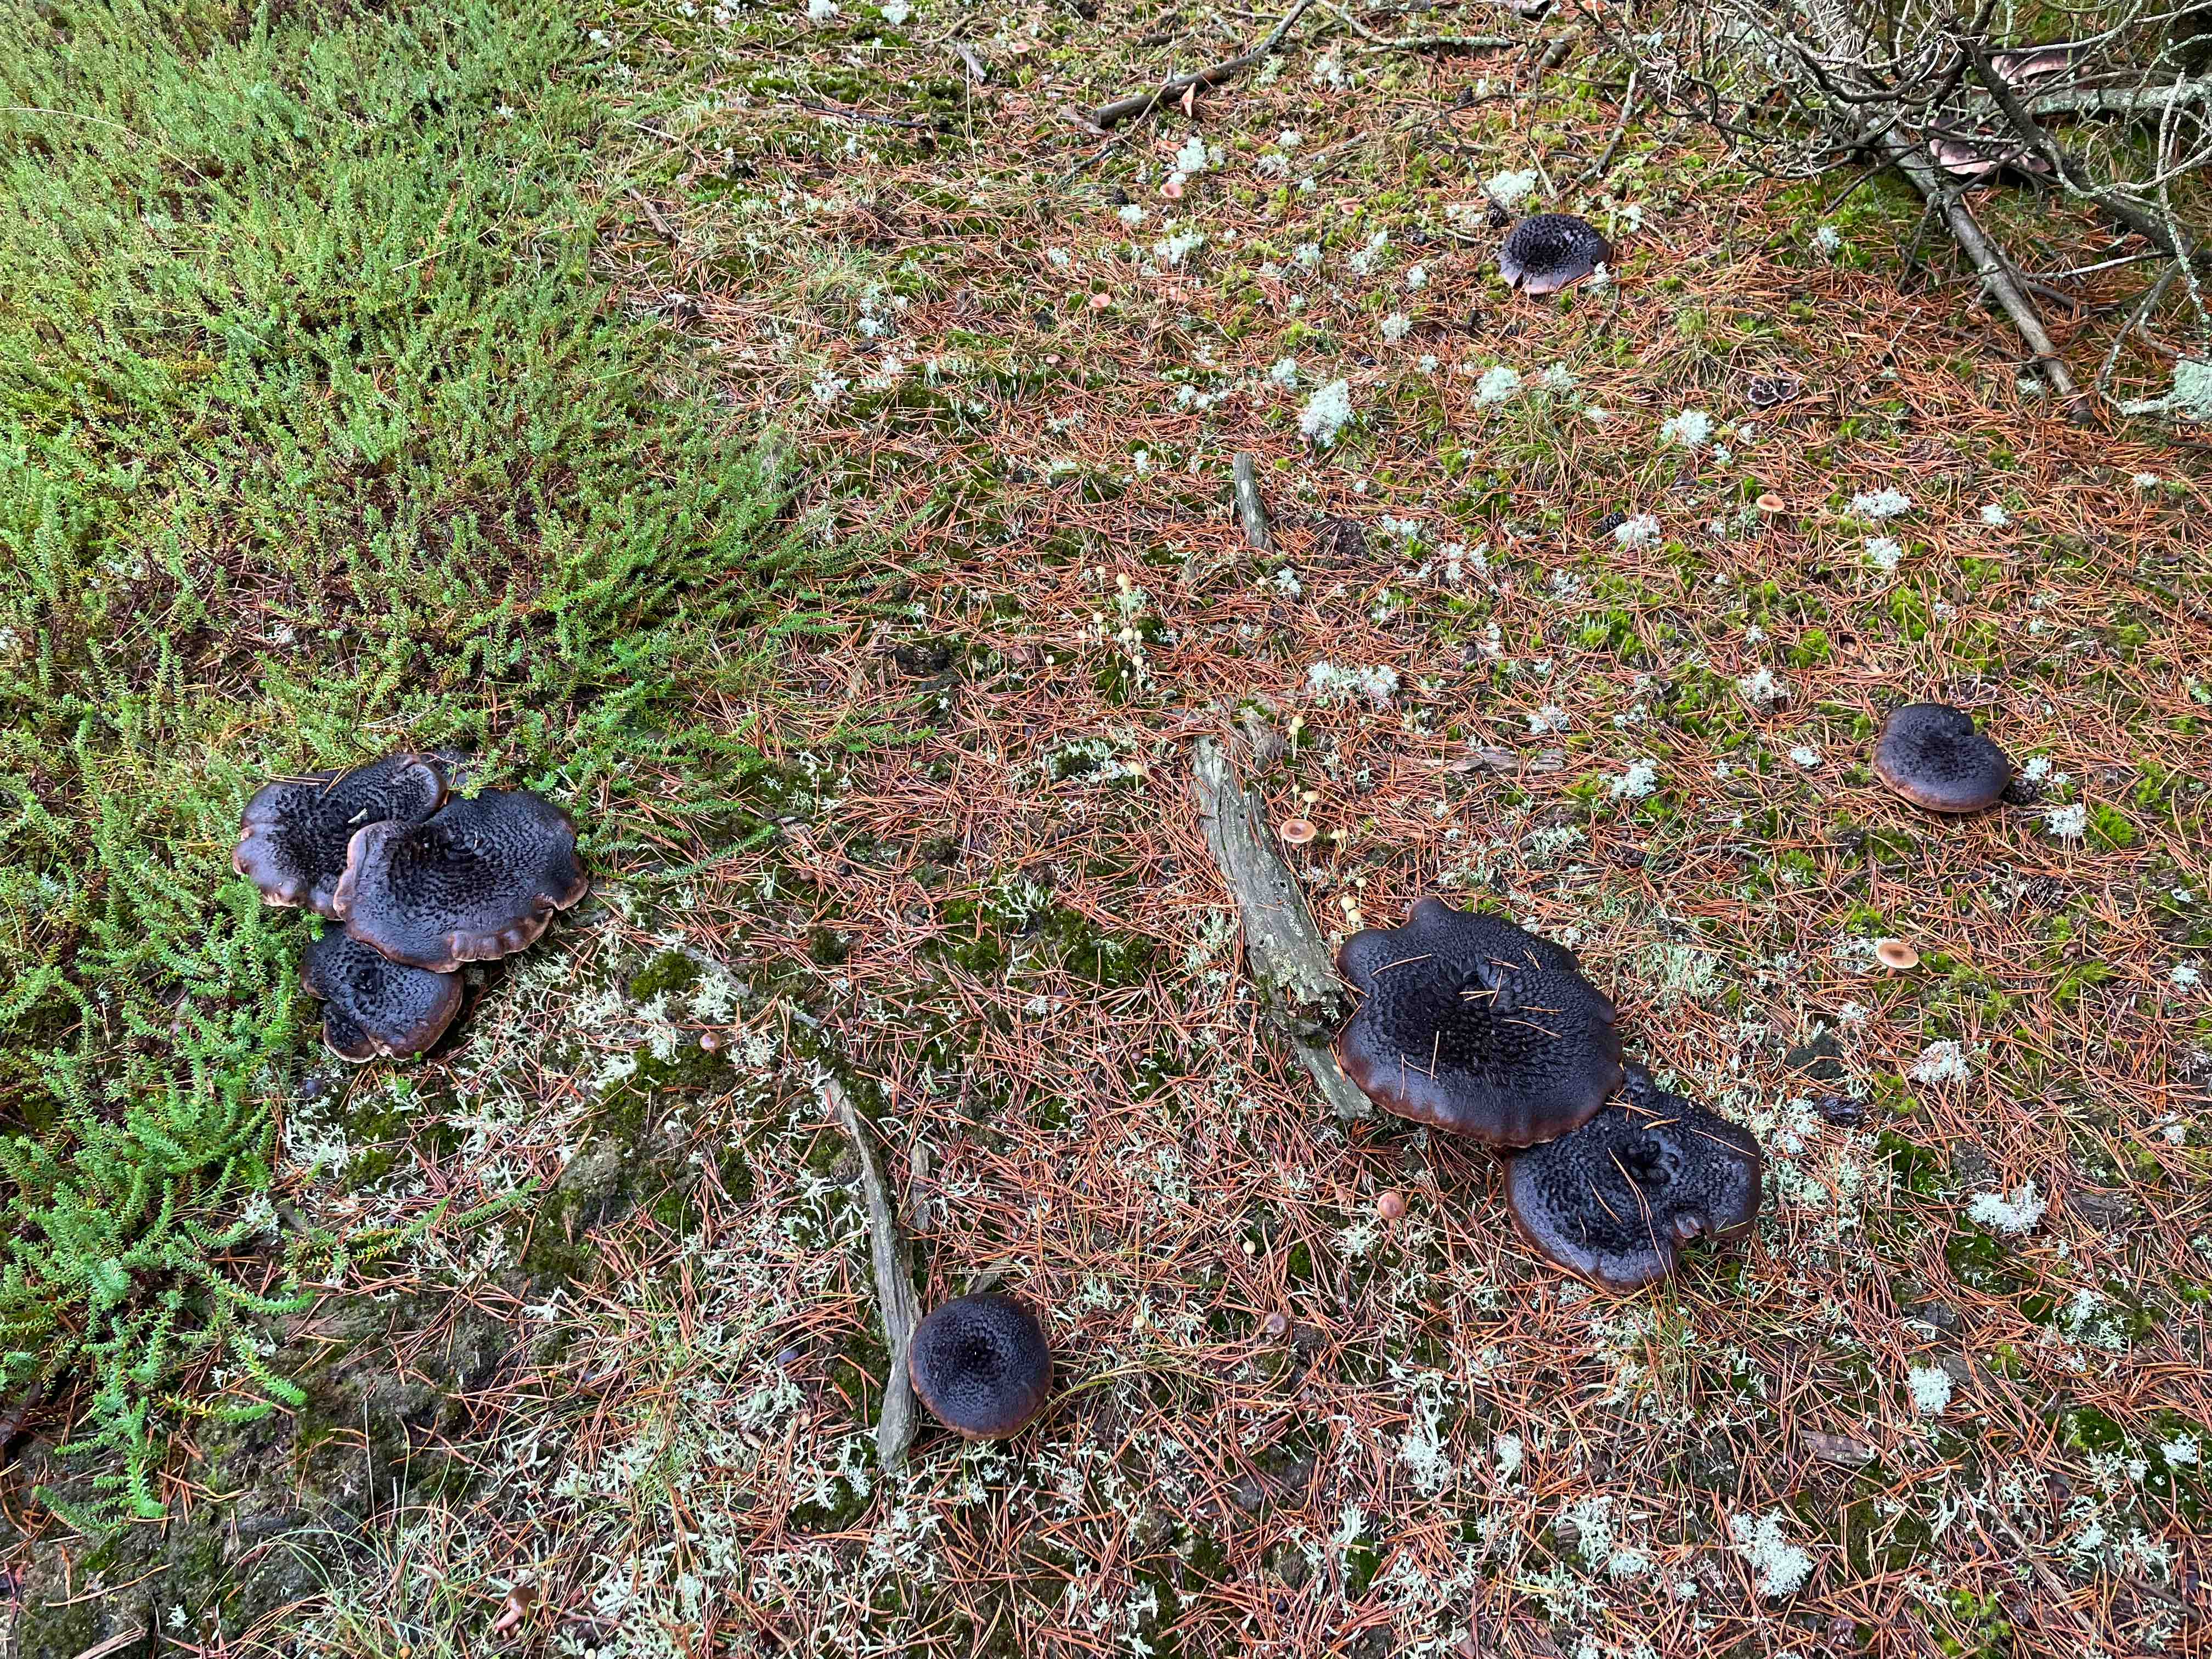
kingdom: Fungi
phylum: Basidiomycota
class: Agaricomycetes
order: Thelephorales
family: Bankeraceae
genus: Sarcodon
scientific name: Sarcodon squamosus
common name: småskællet kødpigsvamp
